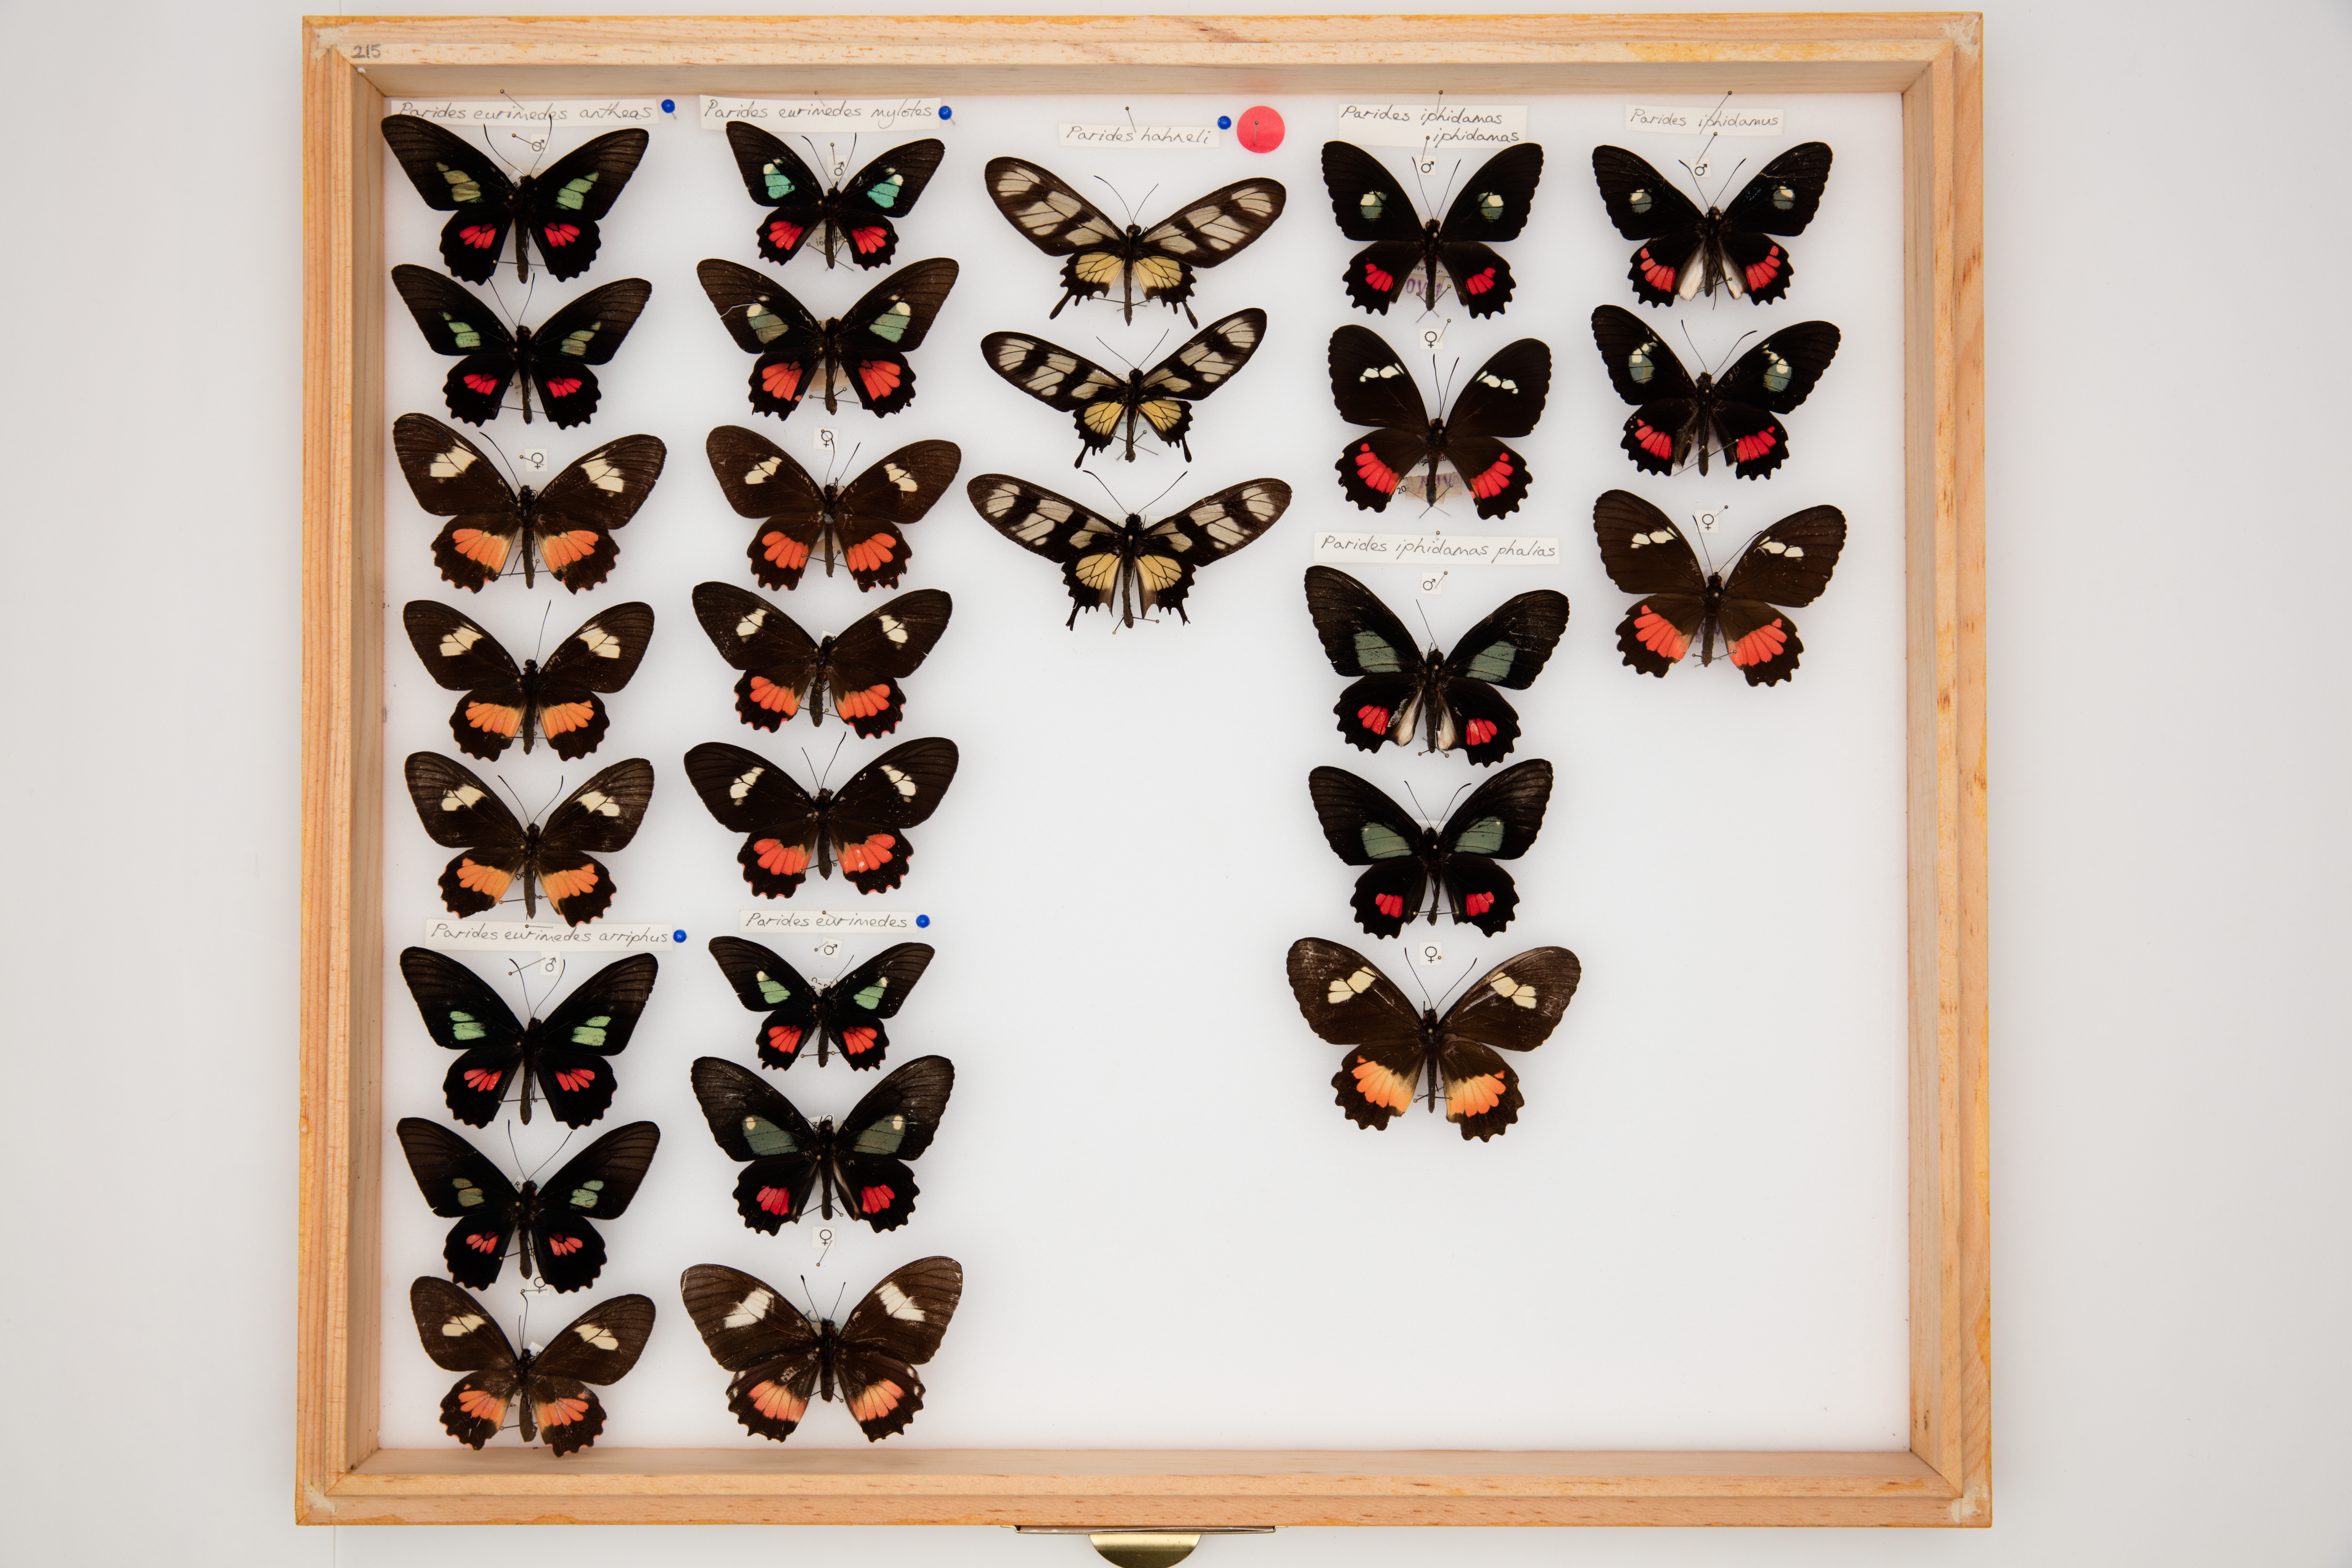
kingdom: Animalia
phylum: Arthropoda
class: Insecta
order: Lepidoptera
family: Papilionidae
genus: Parides
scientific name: Parides eurimedes
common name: True cattleheart
